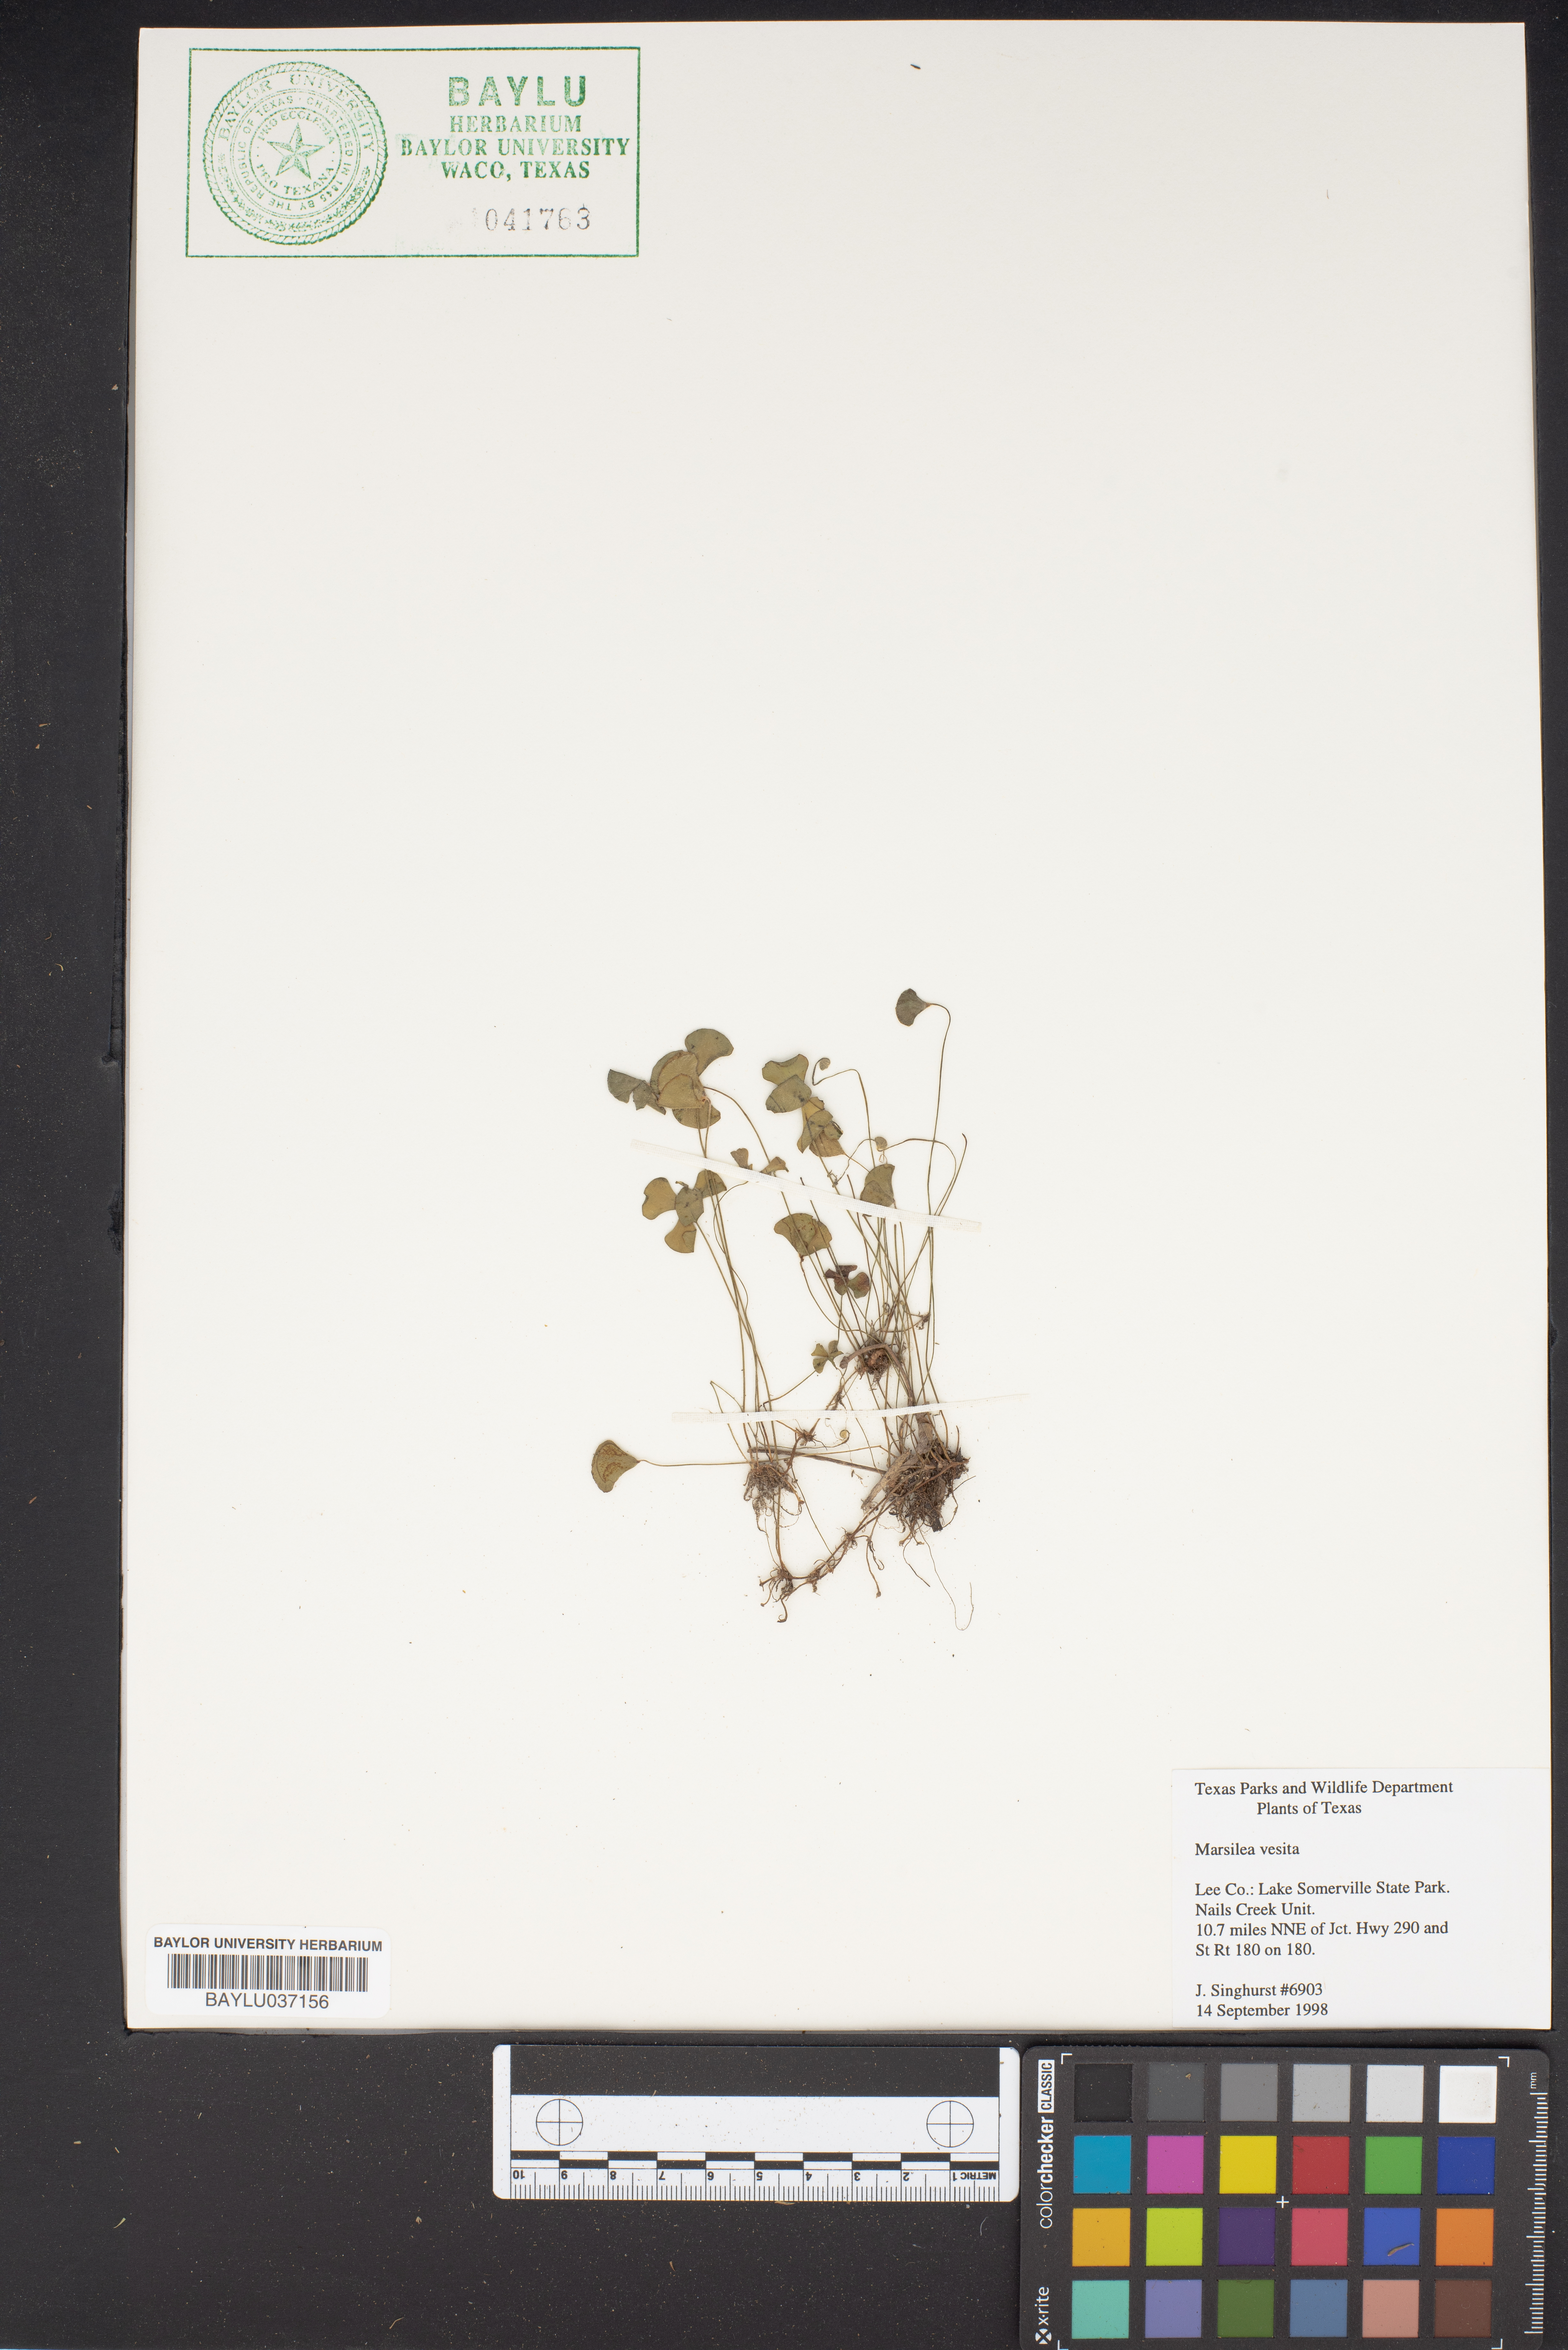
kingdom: Plantae
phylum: Tracheophyta
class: Polypodiopsida
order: Salviniales
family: Marsileaceae
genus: Marsilea
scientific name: Marsilea vestita
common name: Hooked-pepperwort
